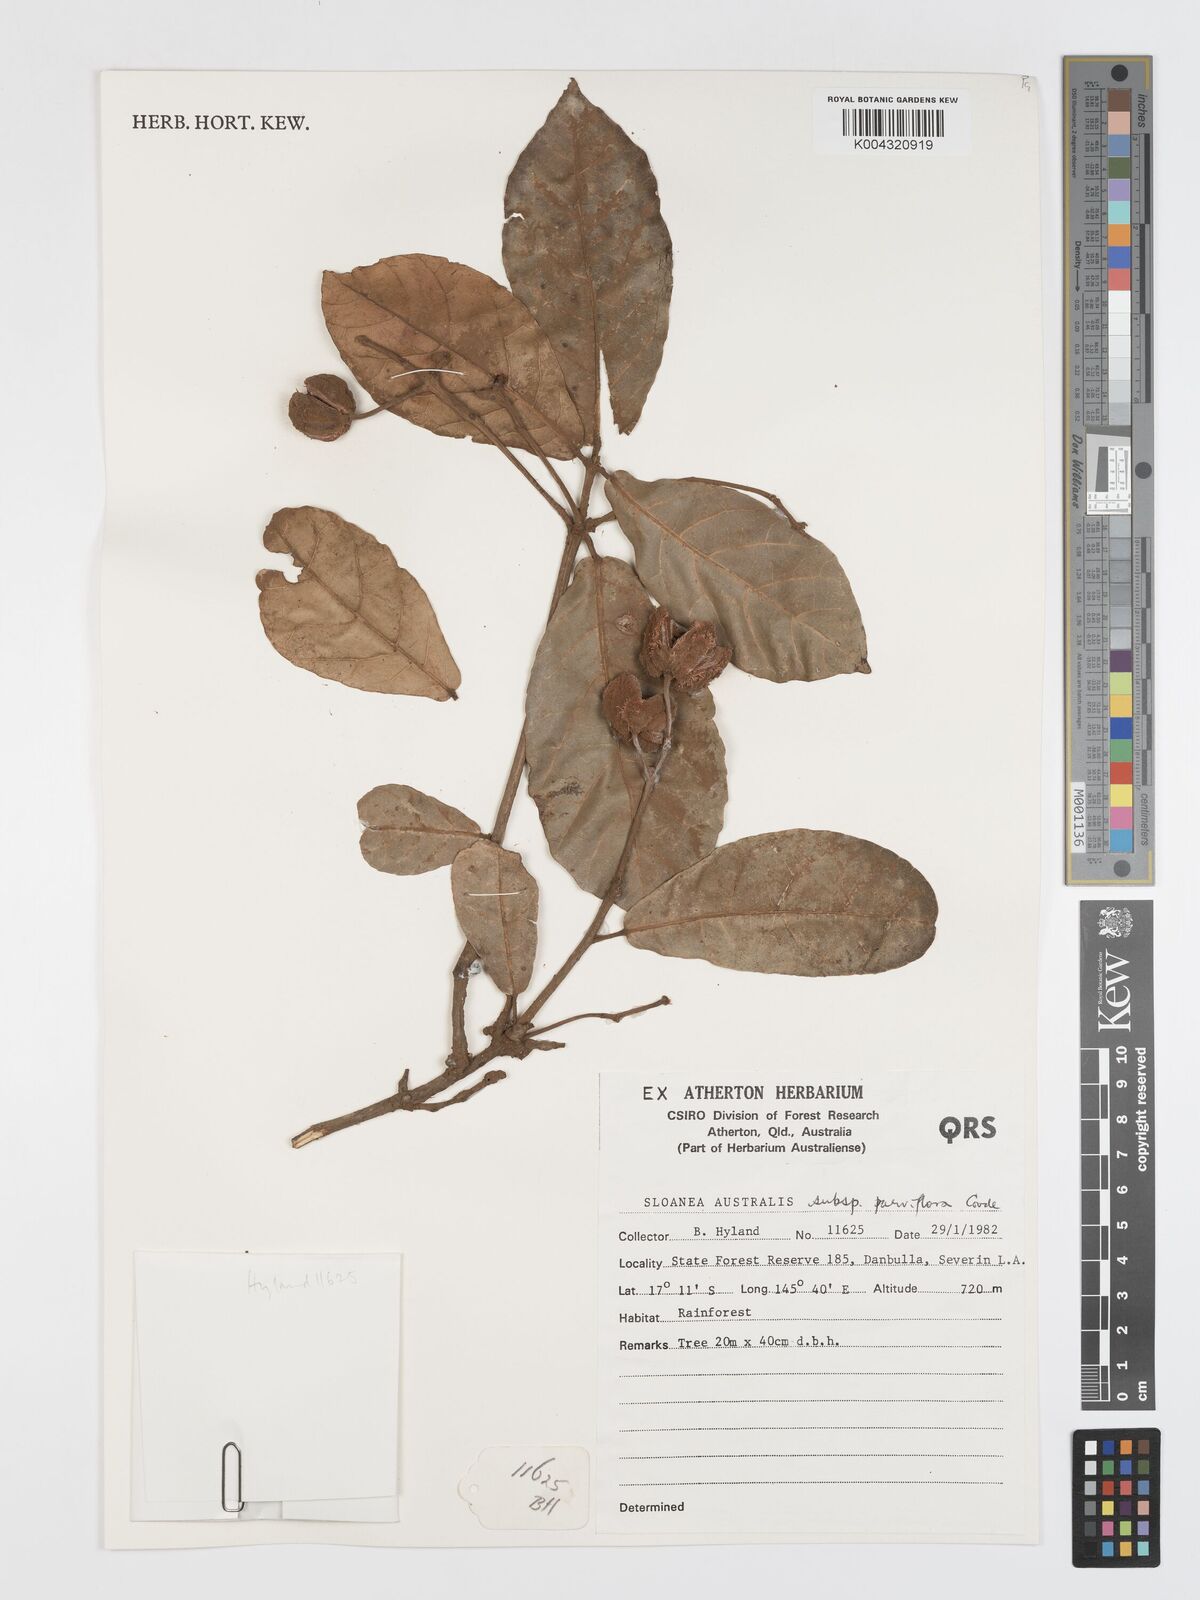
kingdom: Plantae
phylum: Tracheophyta
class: Magnoliopsida
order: Oxalidales
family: Elaeocarpaceae
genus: Sloanea
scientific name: Sloanea australis
